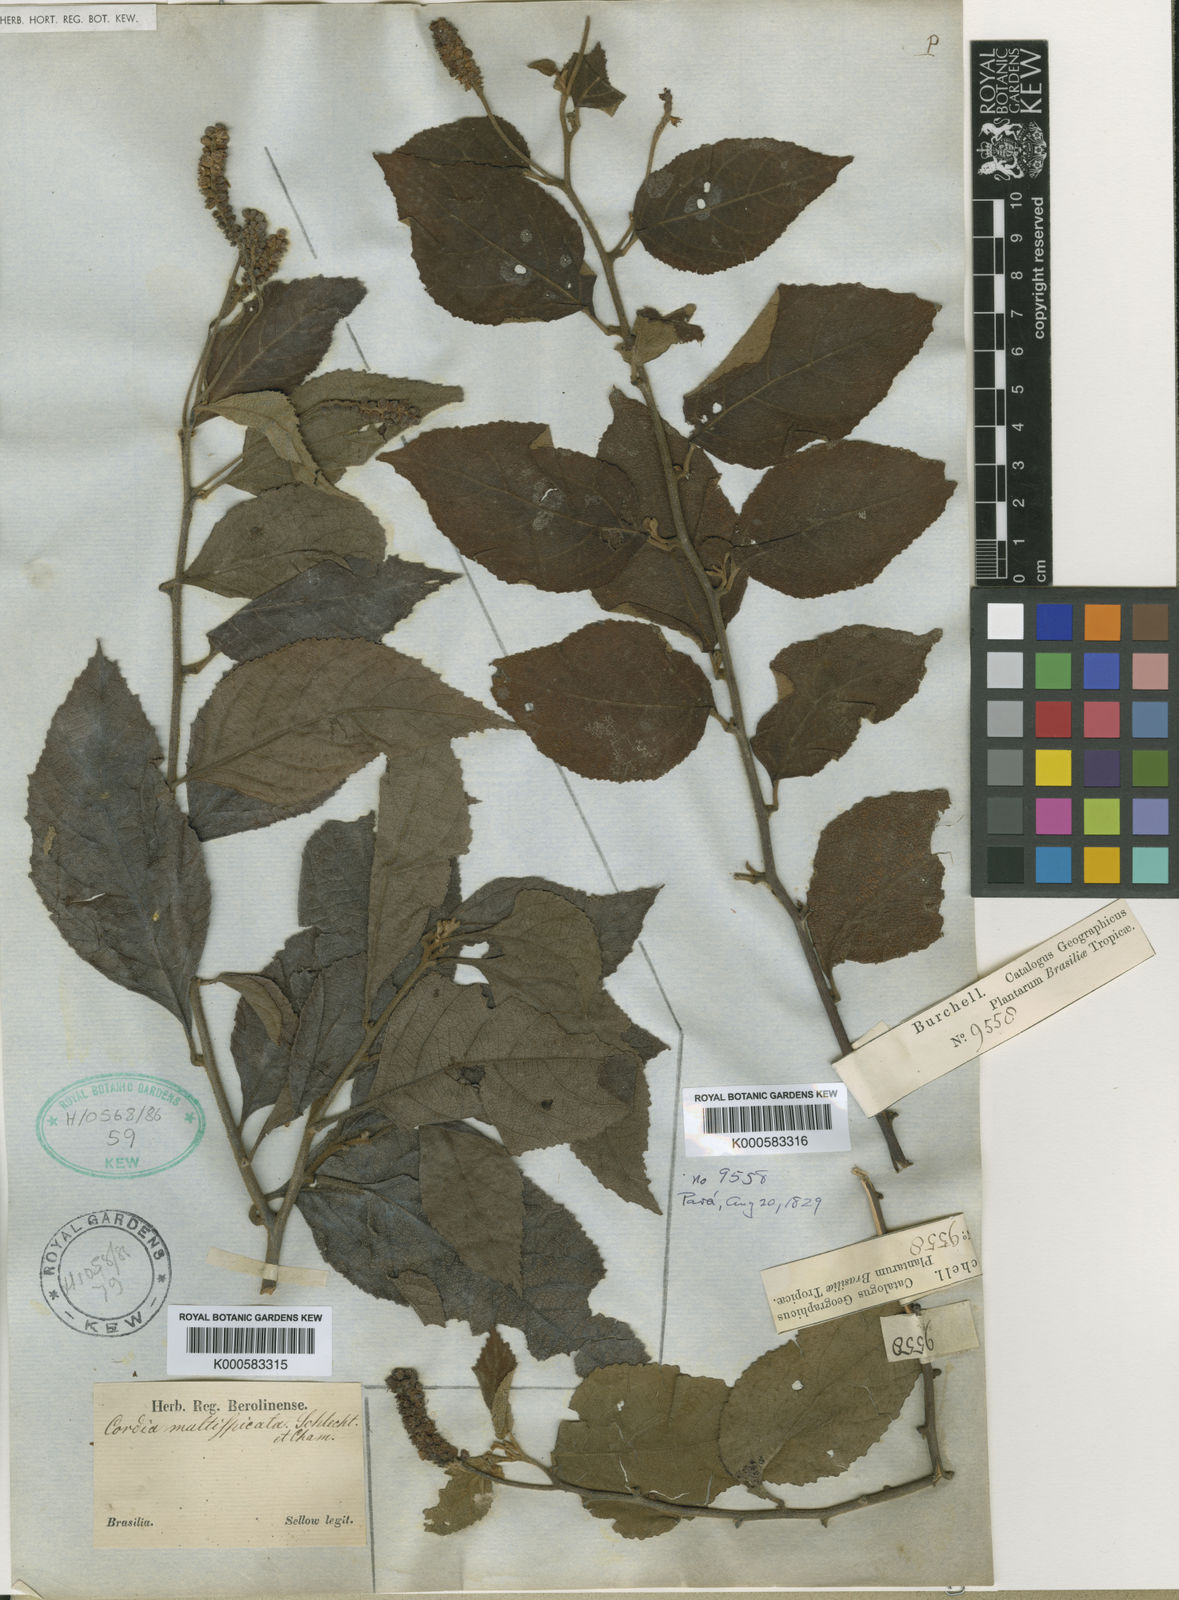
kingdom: Plantae
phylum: Tracheophyta
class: Magnoliopsida
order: Boraginales
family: Cordiaceae
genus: Varronia
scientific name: Varronia multispicata
